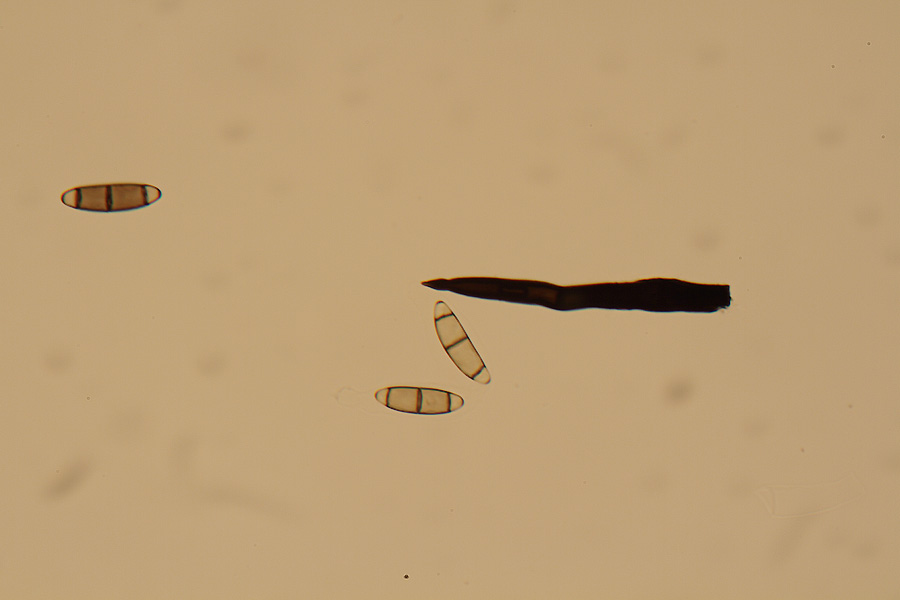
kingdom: Fungi
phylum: Ascomycota
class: Sordariomycetes
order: Coronophorales
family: Chaetosphaerellaceae
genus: Chaetosphaerella
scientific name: Chaetosphaerella phaeostroma
